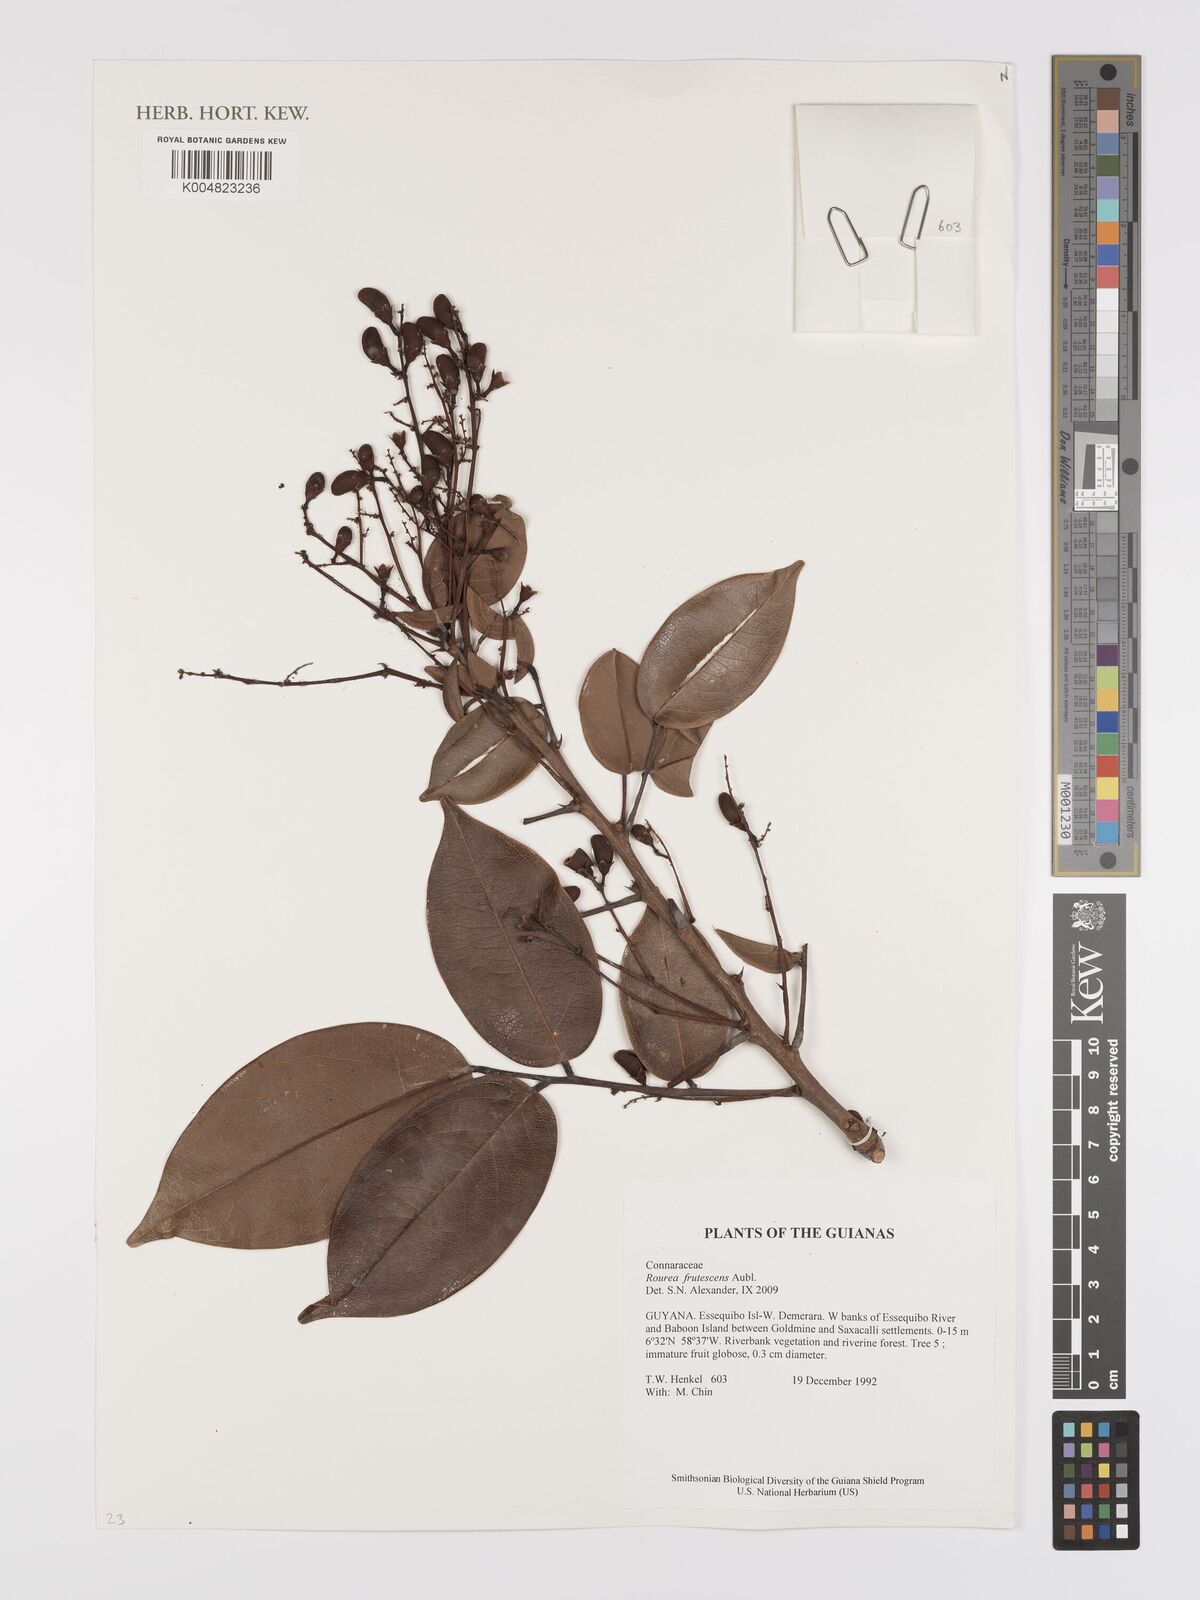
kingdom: Plantae
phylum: Tracheophyta
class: Magnoliopsida
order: Oxalidales
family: Connaraceae
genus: Rourea
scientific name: Rourea frutescens
